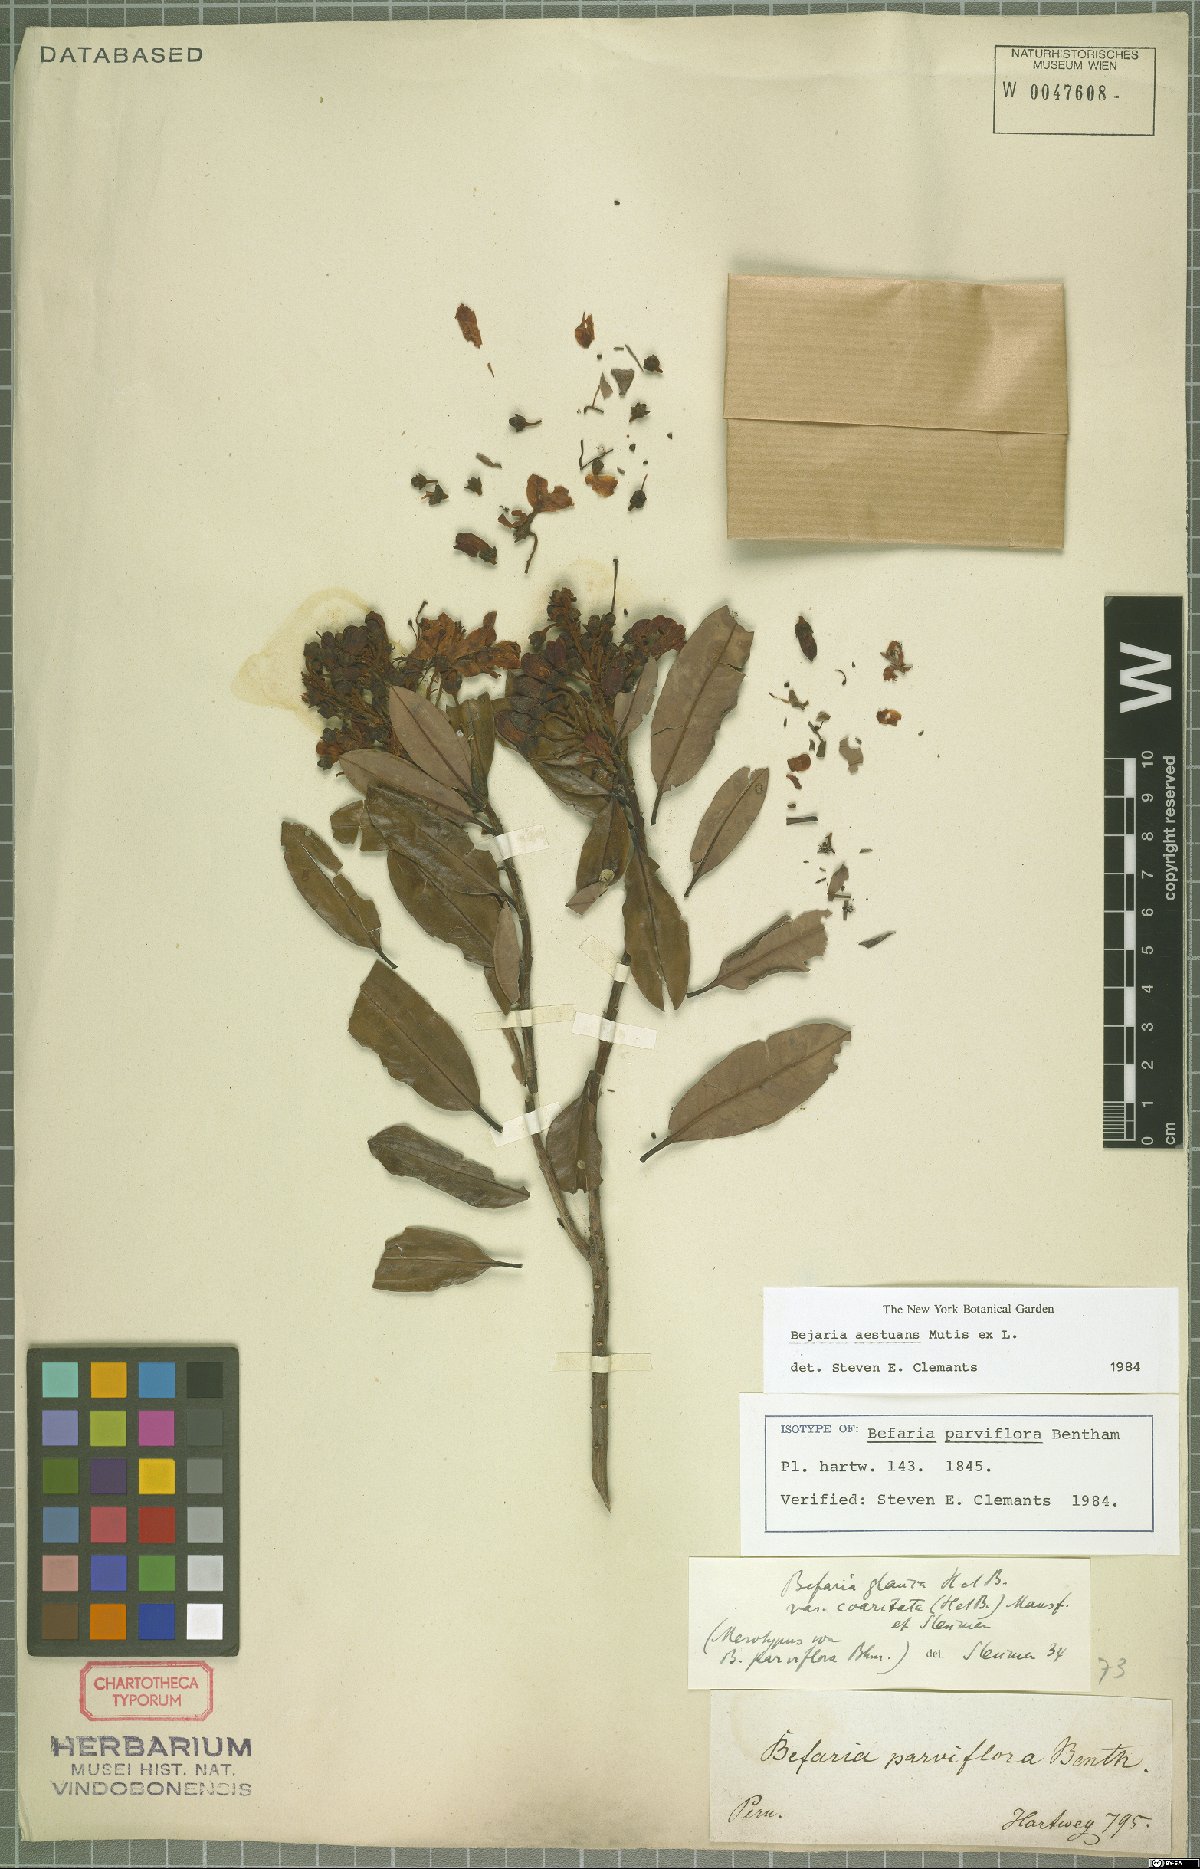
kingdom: Plantae
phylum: Tracheophyta
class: Magnoliopsida
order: Ericales
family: Ericaceae
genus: Bejaria
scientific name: Bejaria aestuans
